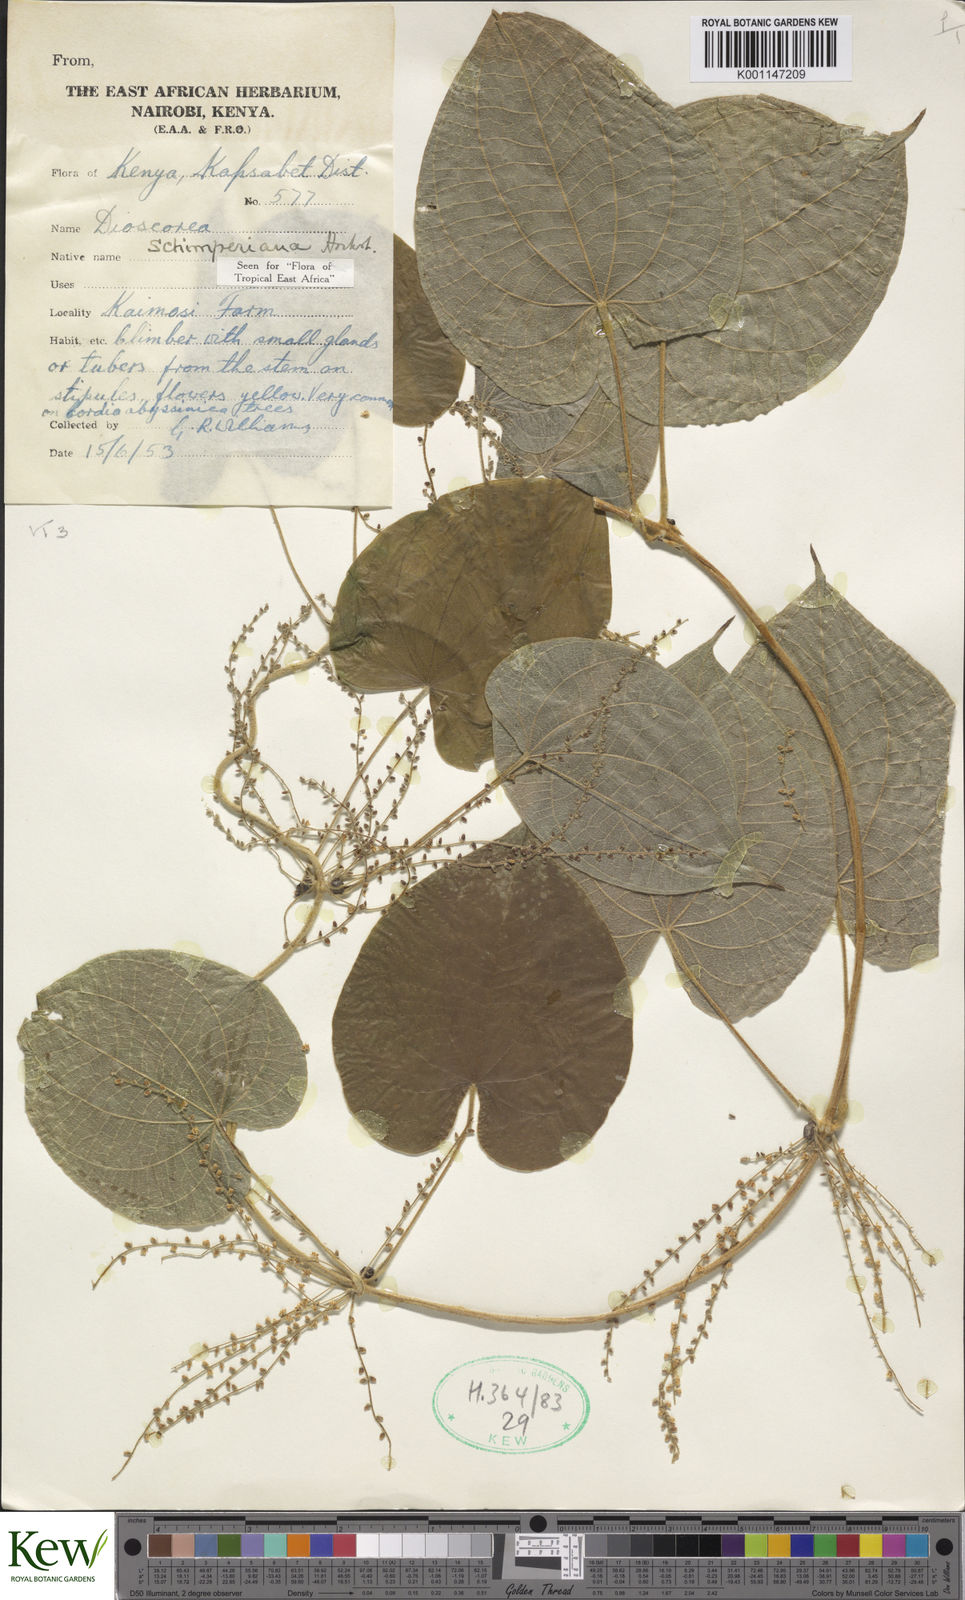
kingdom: Plantae
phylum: Tracheophyta
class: Liliopsida
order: Dioscoreales
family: Dioscoreaceae
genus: Dioscorea
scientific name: Dioscorea schimperiana
